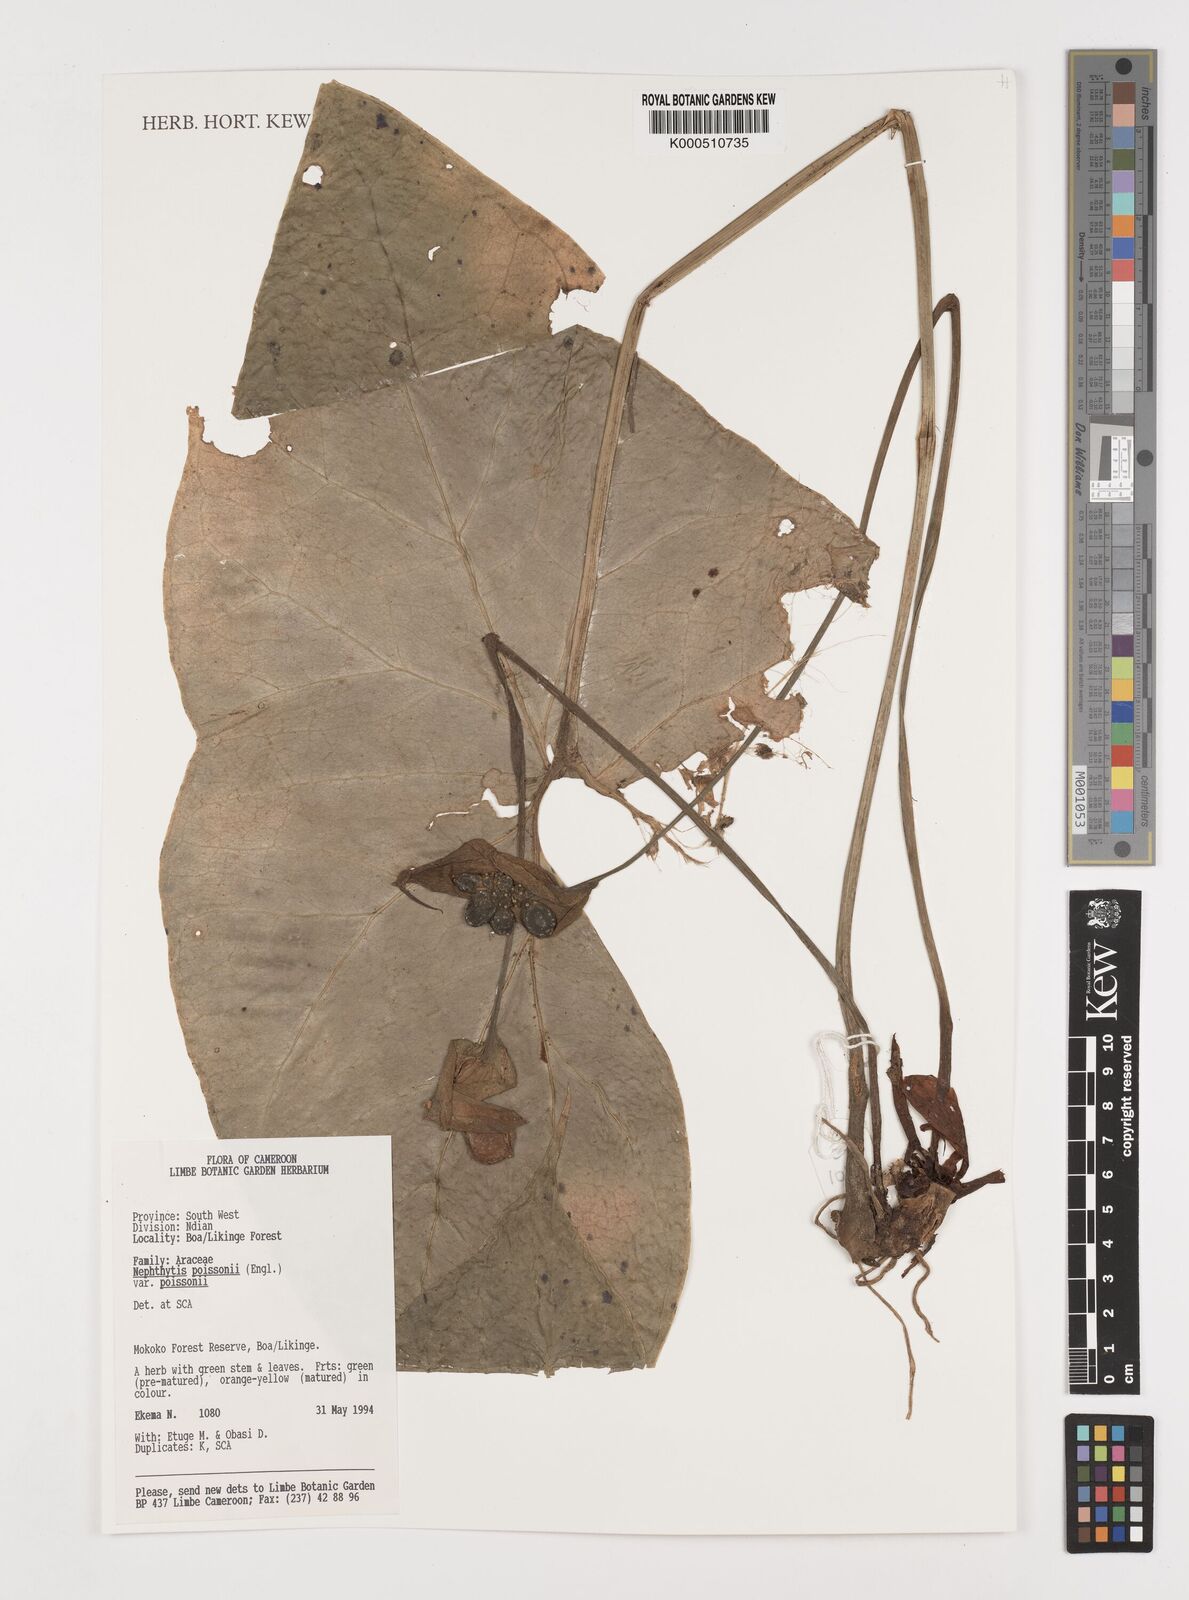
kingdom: Plantae
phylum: Tracheophyta
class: Liliopsida
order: Alismatales
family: Araceae
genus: Nephthytis
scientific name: Nephthytis poissonii
